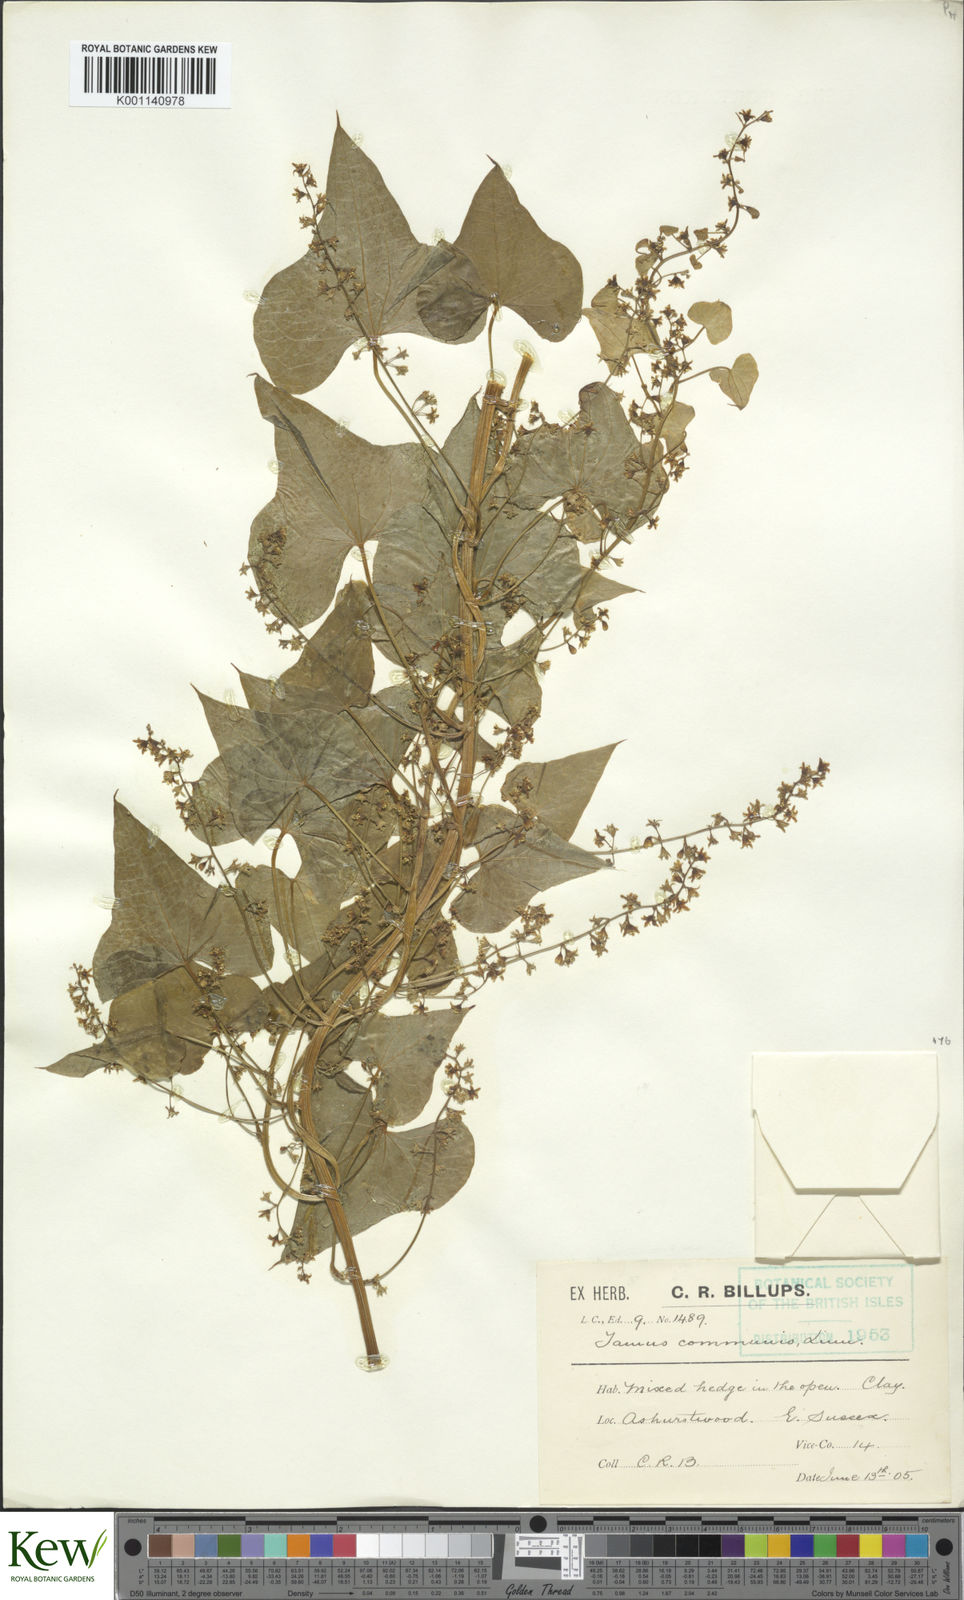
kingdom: Plantae
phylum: Tracheophyta
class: Liliopsida
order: Dioscoreales
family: Dioscoreaceae
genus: Dioscorea
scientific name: Dioscorea communis
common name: Black-bindweed
